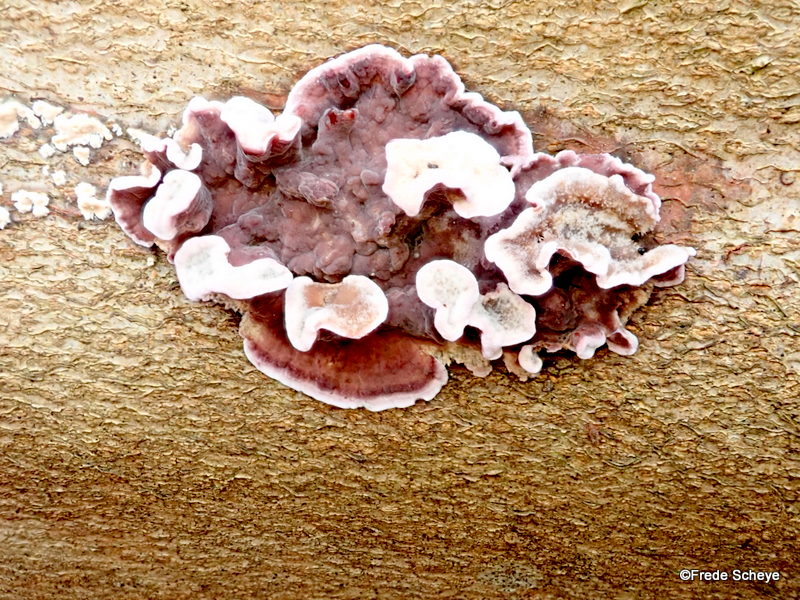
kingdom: Fungi
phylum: Basidiomycota
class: Agaricomycetes
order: Agaricales
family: Cyphellaceae
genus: Chondrostereum
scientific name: Chondrostereum purpureum
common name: purpurlædersvamp
